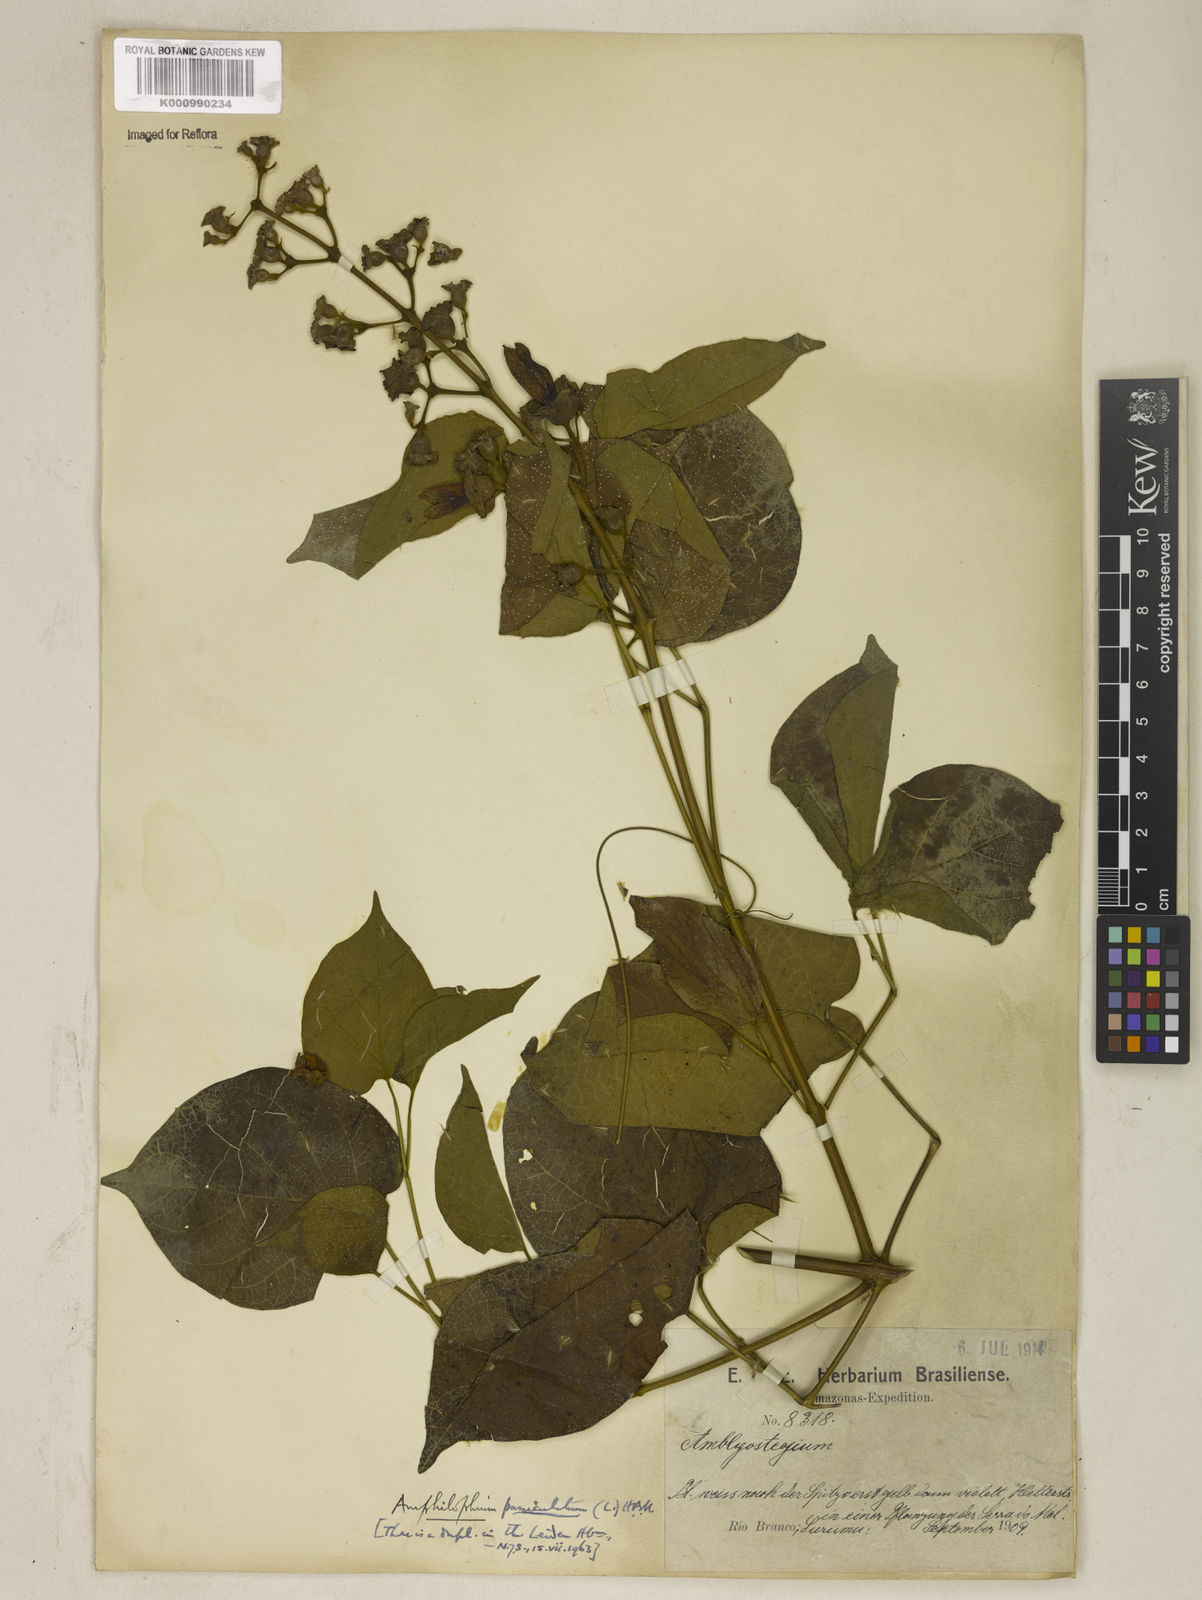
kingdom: Plantae
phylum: Tracheophyta
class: Magnoliopsida
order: Lamiales
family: Bignoniaceae
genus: Amphilophium
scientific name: Amphilophium paniculatum
